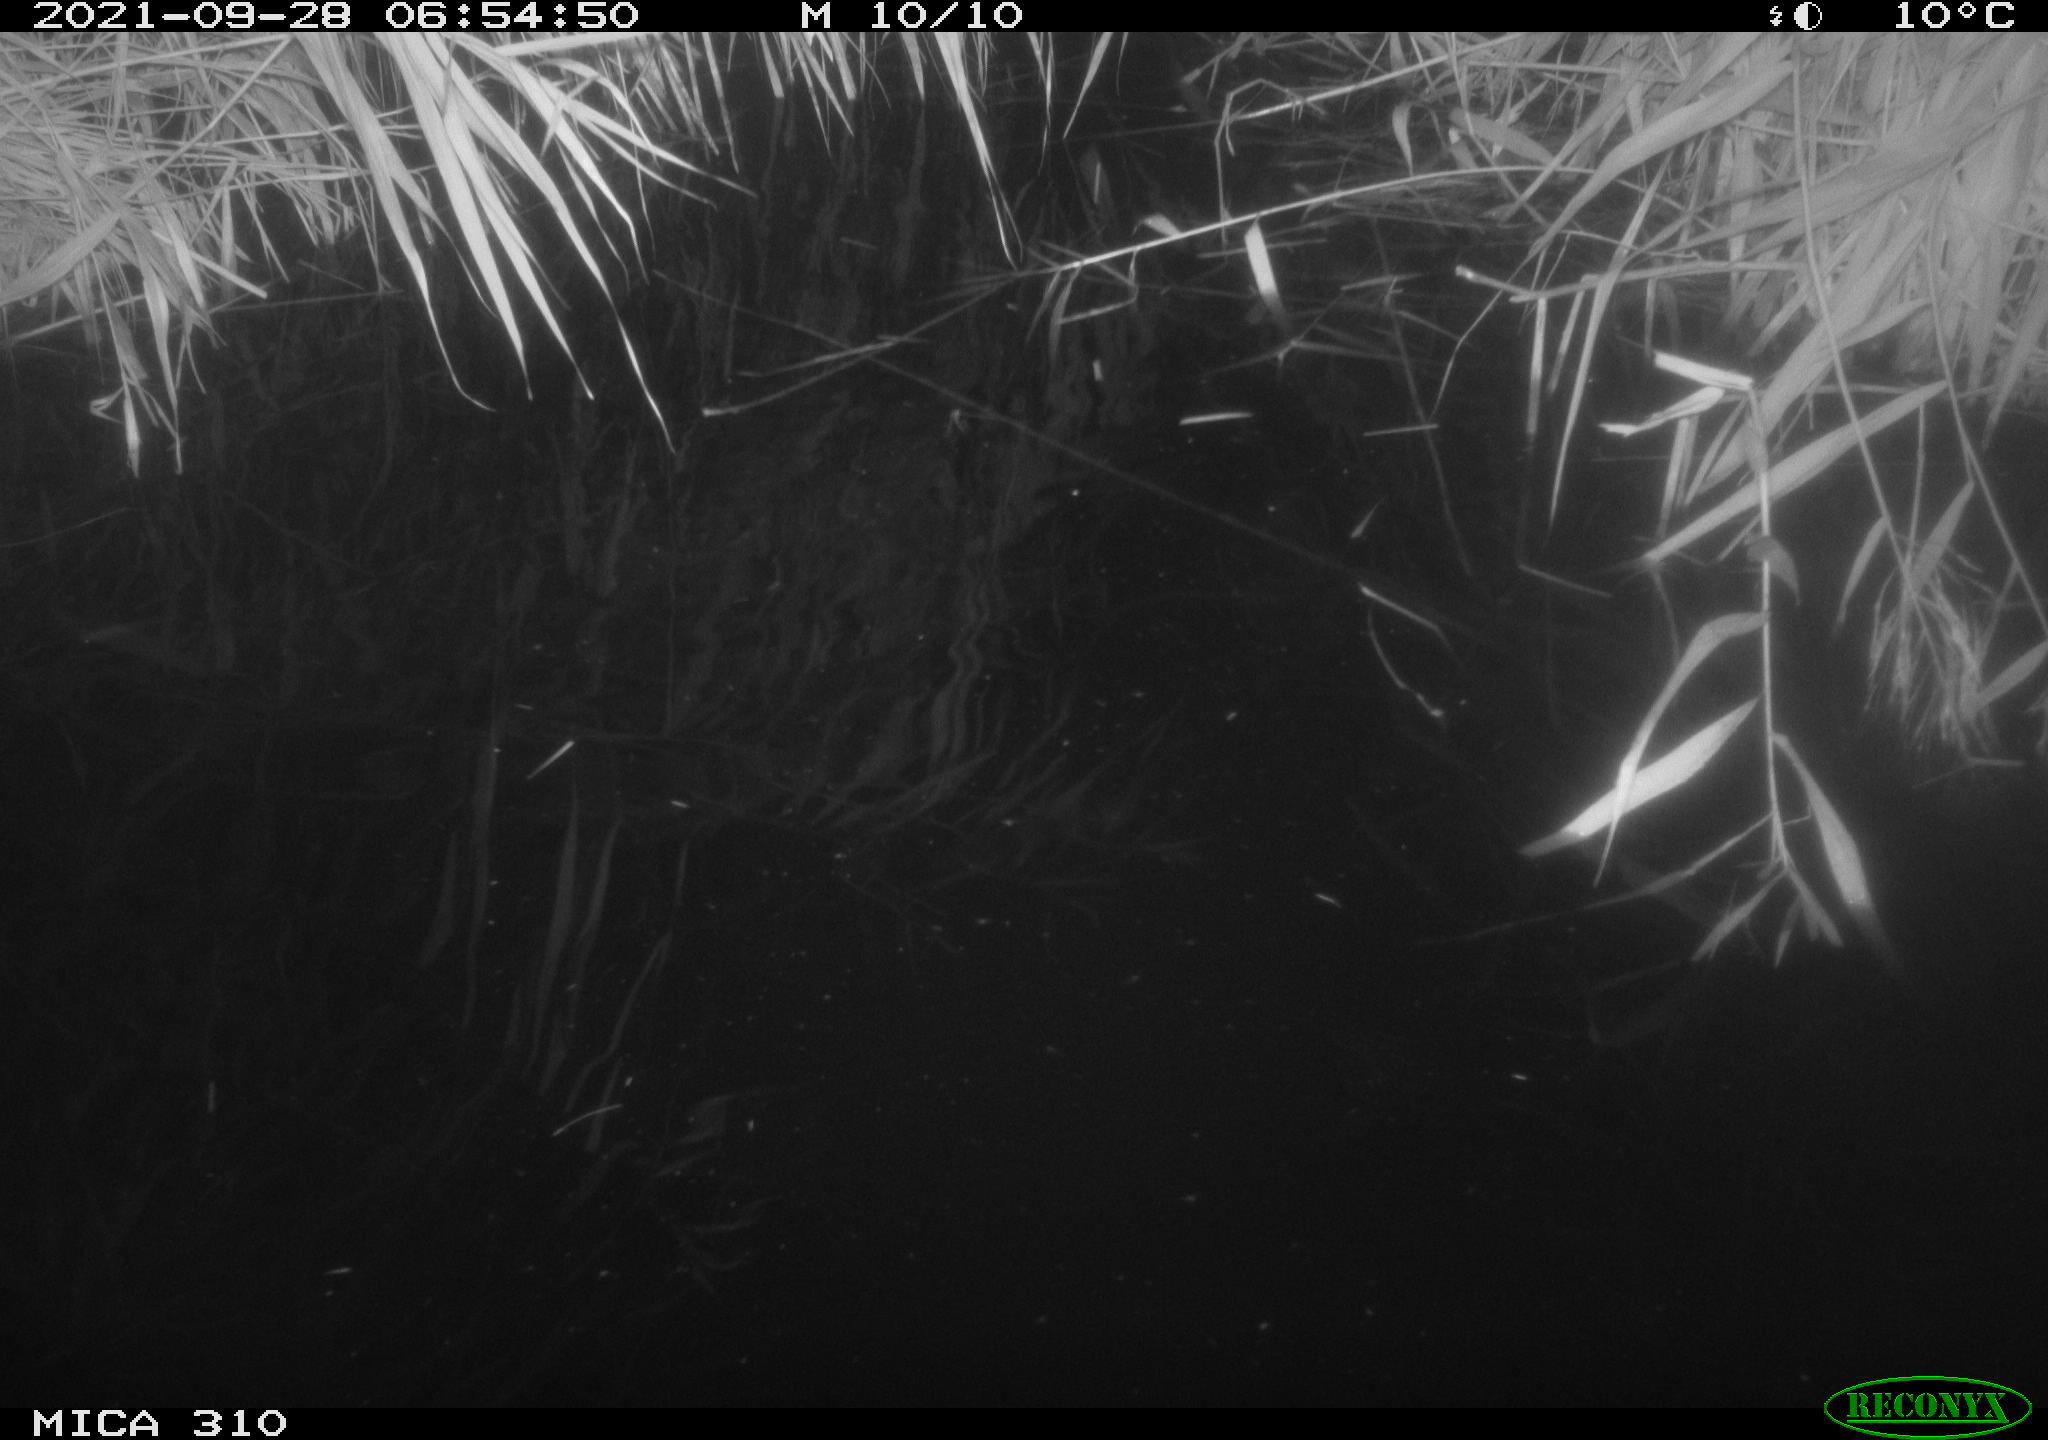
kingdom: Animalia
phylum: Chordata
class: Aves
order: Gruiformes
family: Rallidae
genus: Gallinula
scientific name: Gallinula chloropus
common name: Common moorhen
